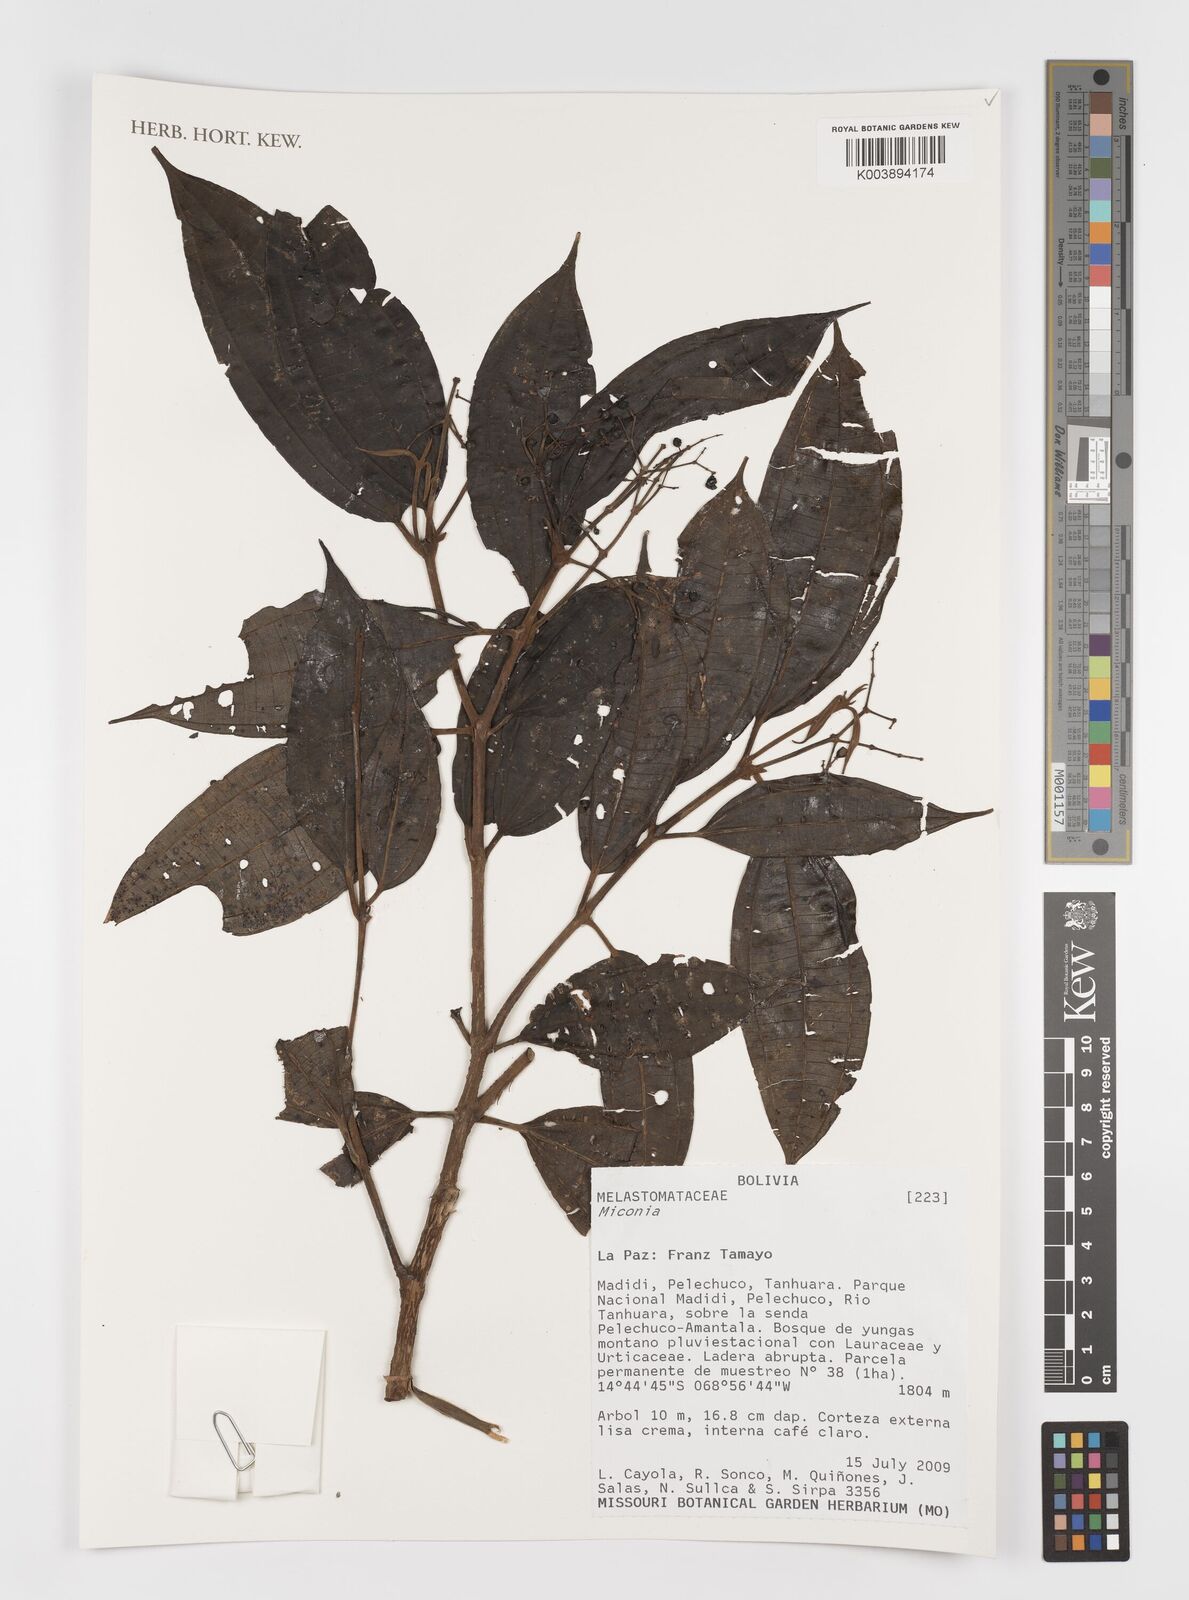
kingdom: Plantae
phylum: Tracheophyta
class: Magnoliopsida
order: Myrtales
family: Melastomataceae
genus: Miconia
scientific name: Miconia
